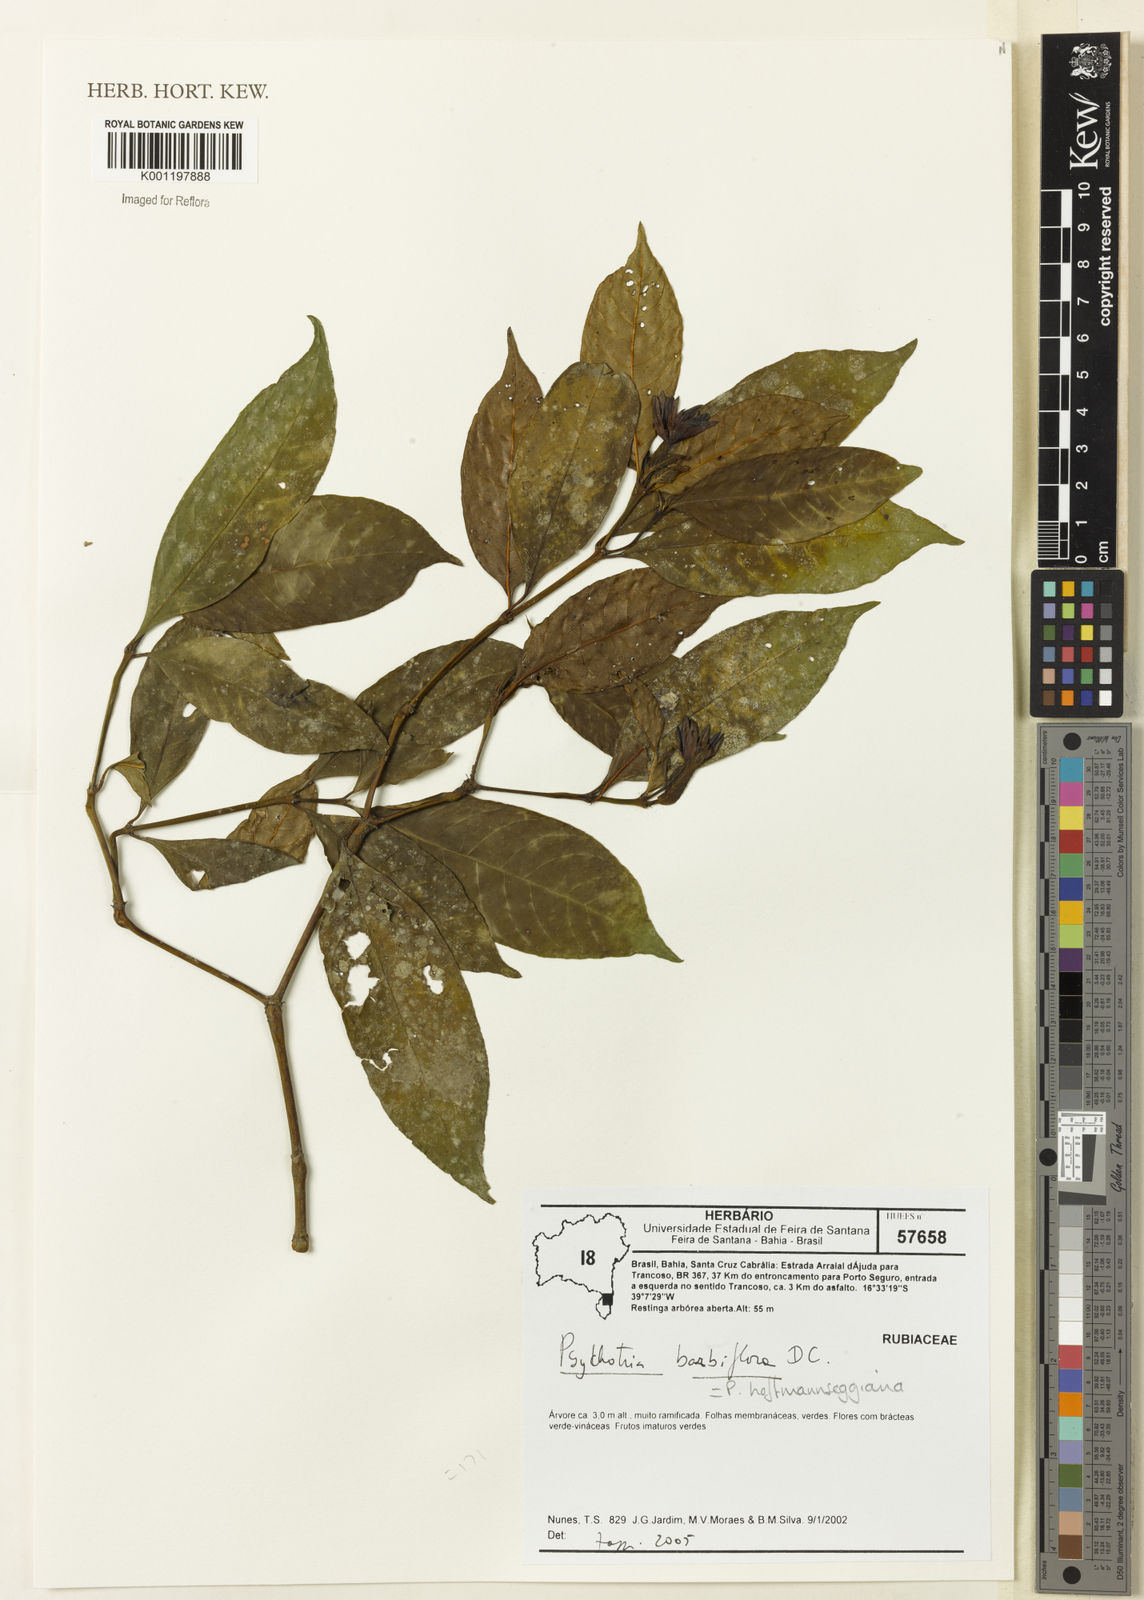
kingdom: Plantae
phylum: Tracheophyta
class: Magnoliopsida
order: Gentianales
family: Rubiaceae
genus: Psychotria
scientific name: Psychotria
